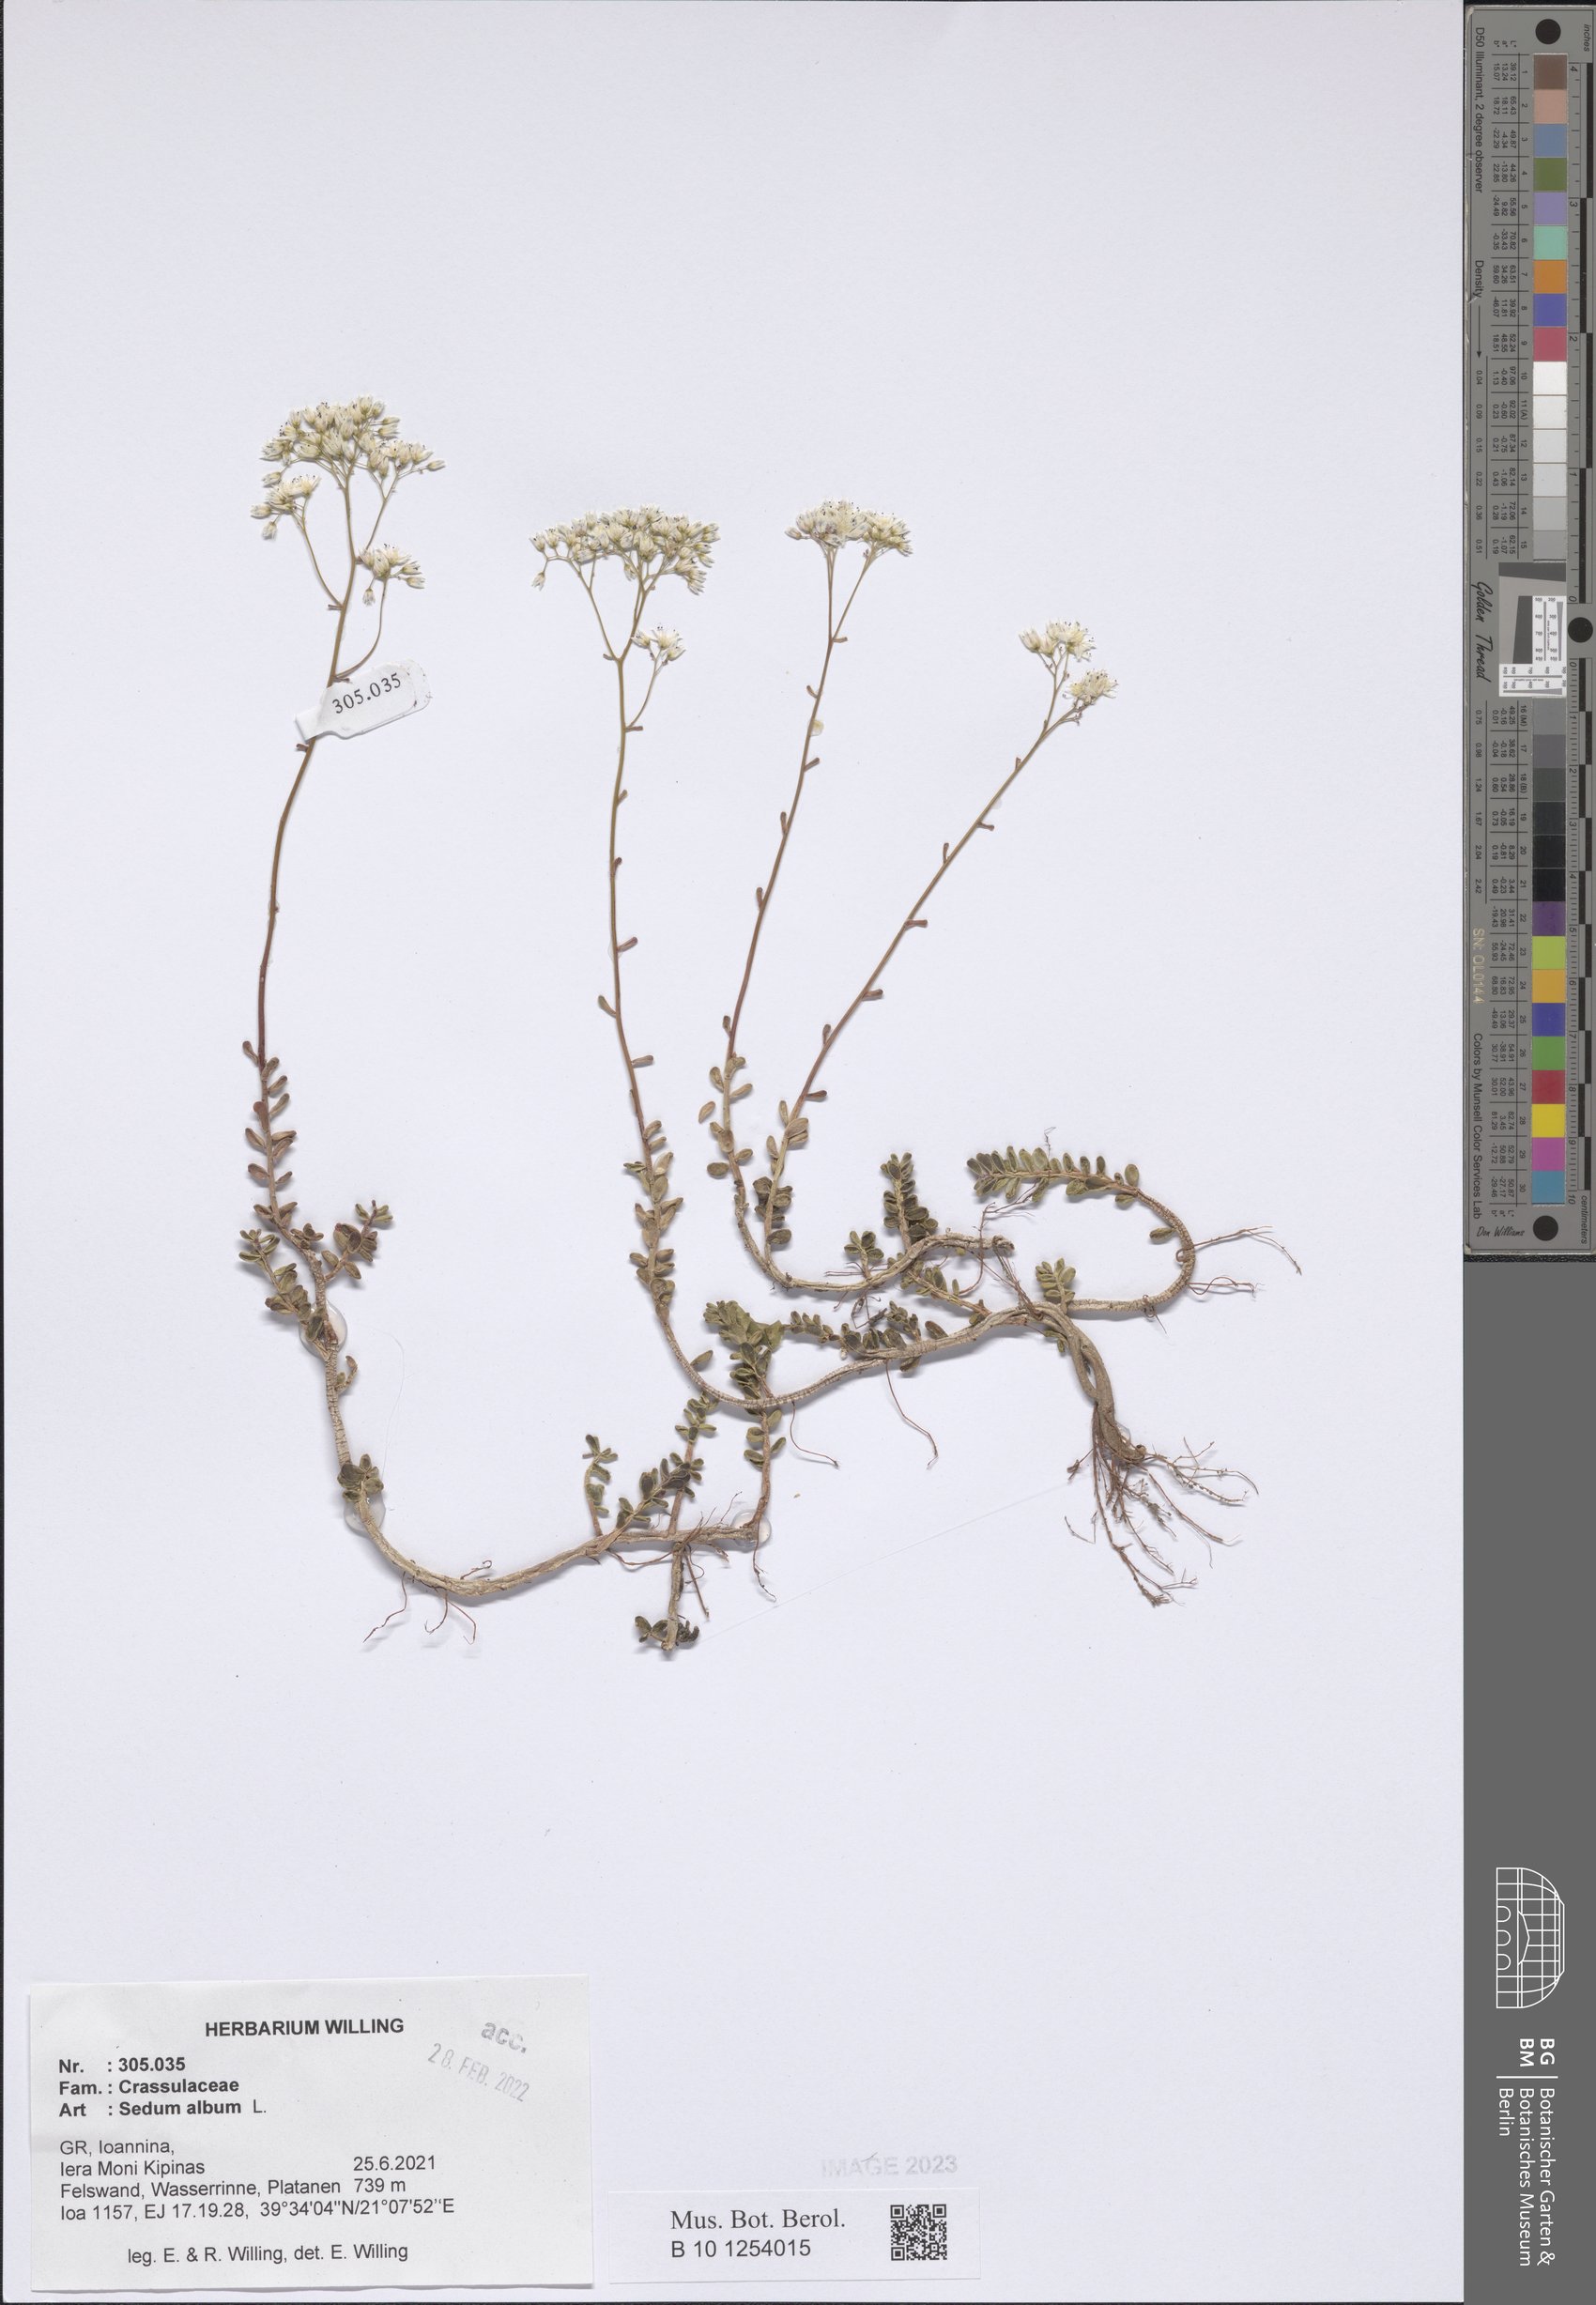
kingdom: Plantae
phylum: Tracheophyta
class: Magnoliopsida
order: Saxifragales
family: Crassulaceae
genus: Sedum
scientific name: Sedum album
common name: White stonecrop
